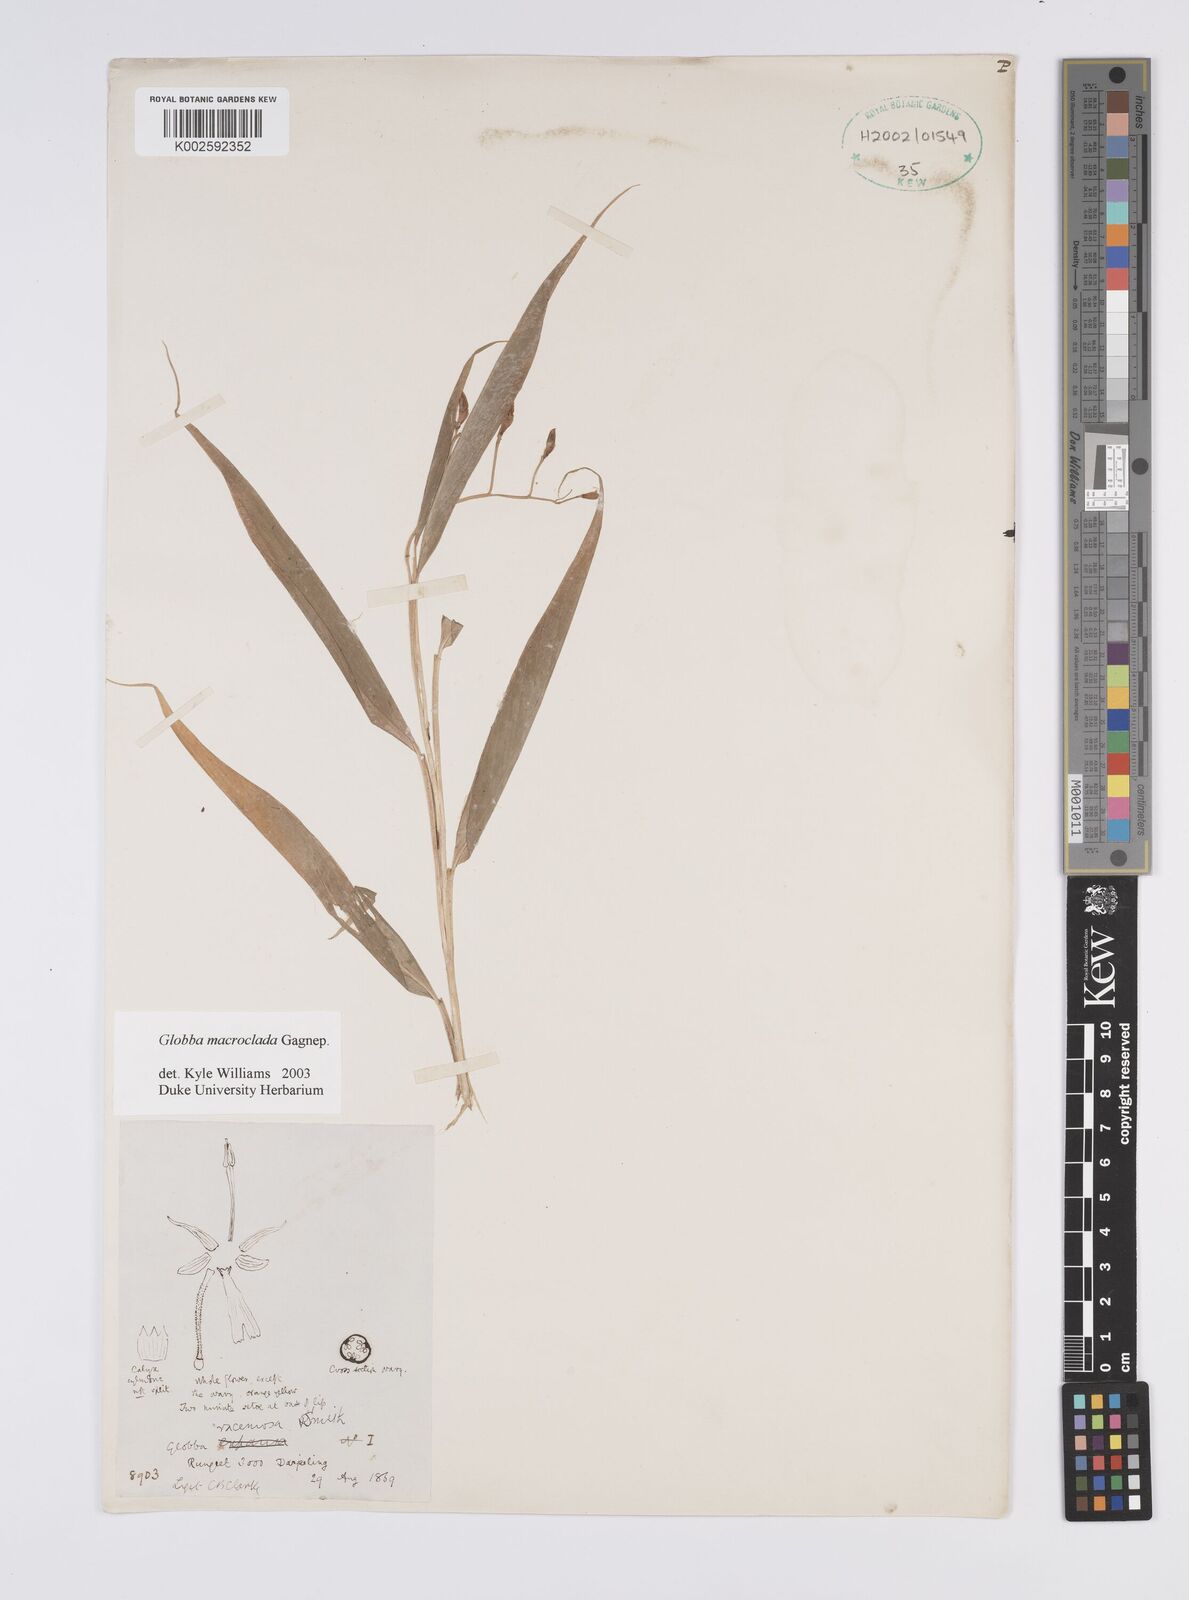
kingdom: Plantae
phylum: Tracheophyta
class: Liliopsida
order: Zingiberales
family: Zingiberaceae
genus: Globba
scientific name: Globba macroclada
